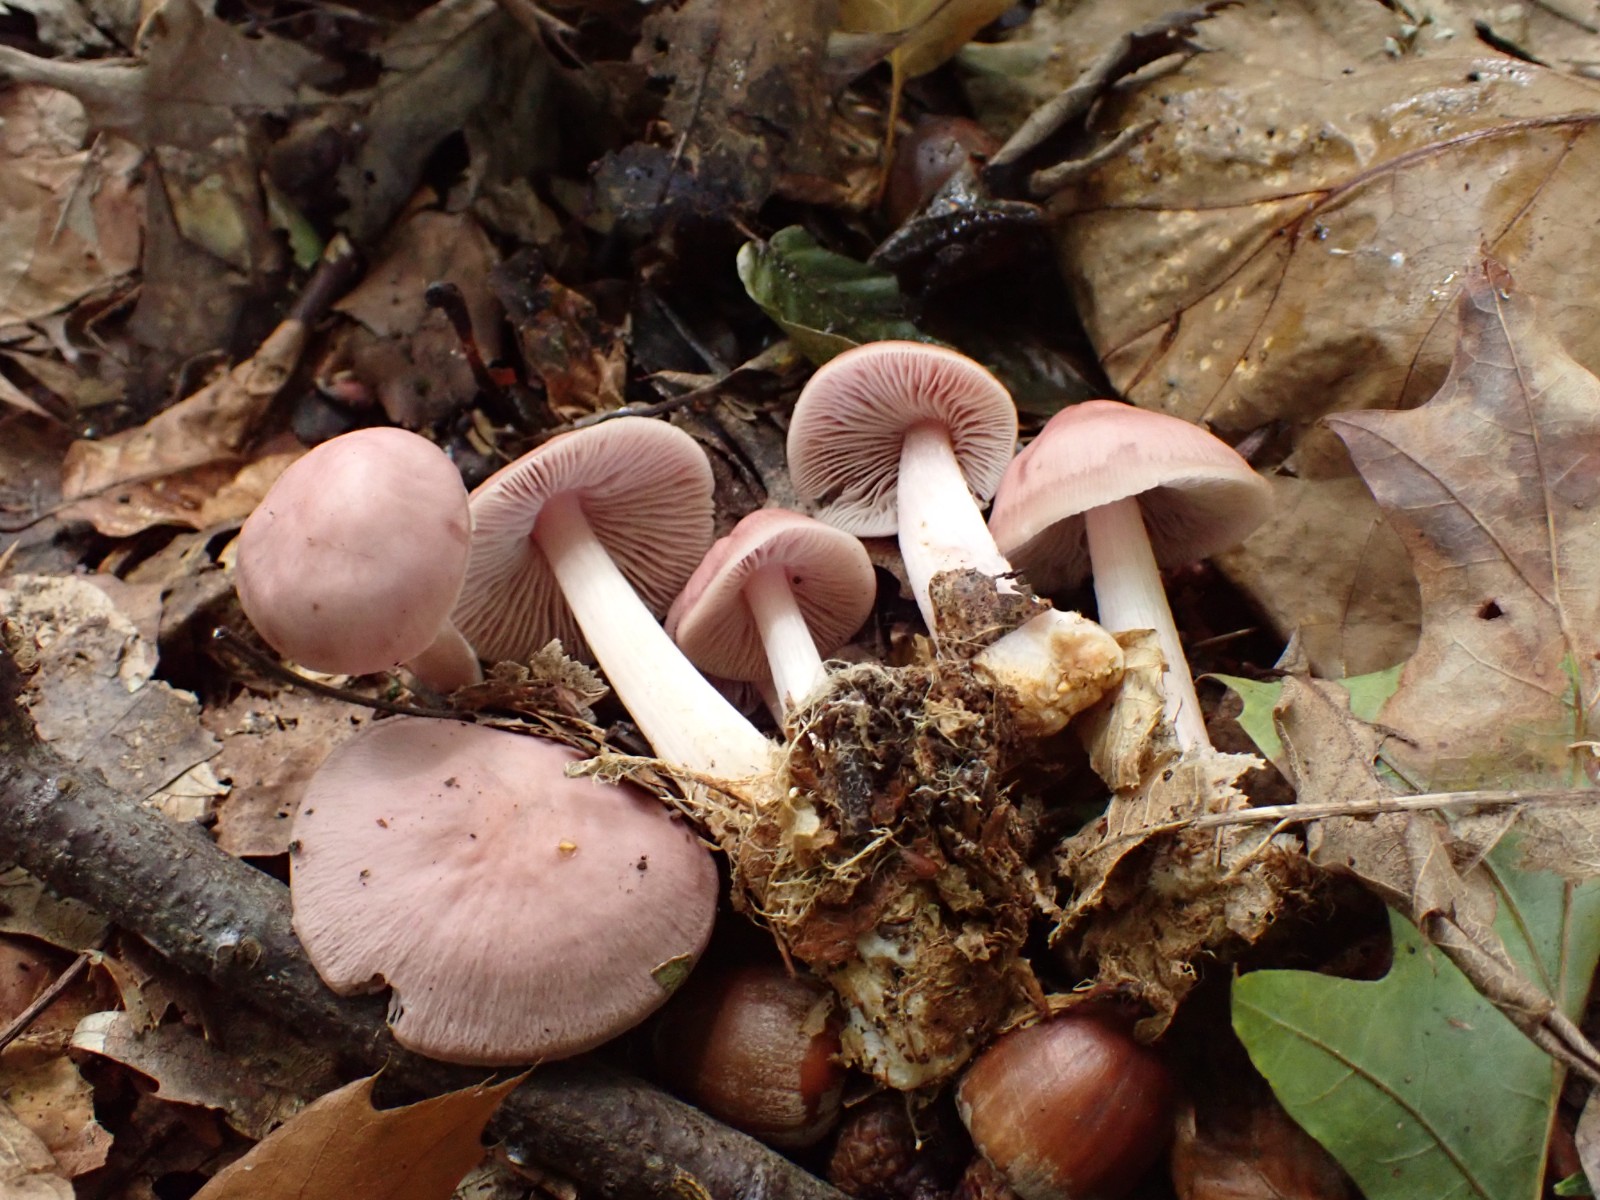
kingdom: Fungi
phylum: Basidiomycota
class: Agaricomycetes
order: Agaricales
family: Mycenaceae
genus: Mycena
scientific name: Mycena rosea
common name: rosa huesvamp
